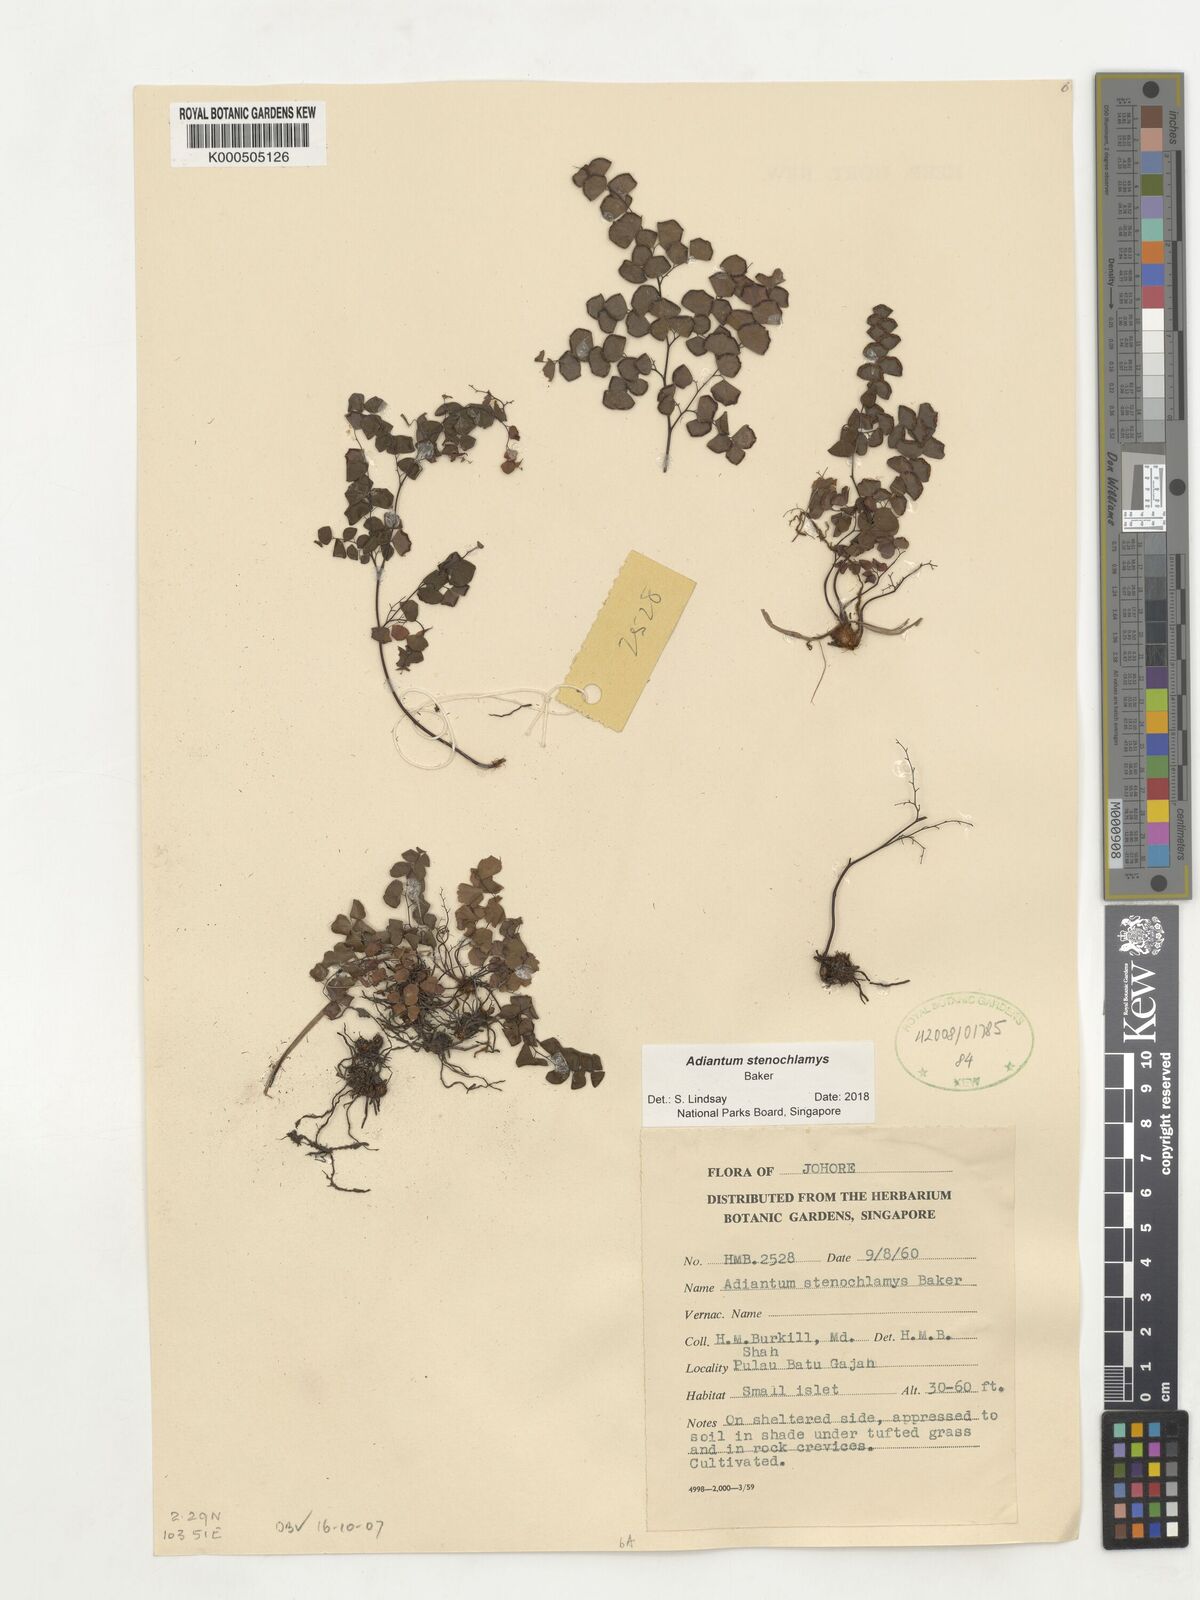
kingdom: Plantae
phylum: Tracheophyta
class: Polypodiopsida
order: Polypodiales
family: Pteridaceae
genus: Adiantum
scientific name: Adiantum stenochlamys
